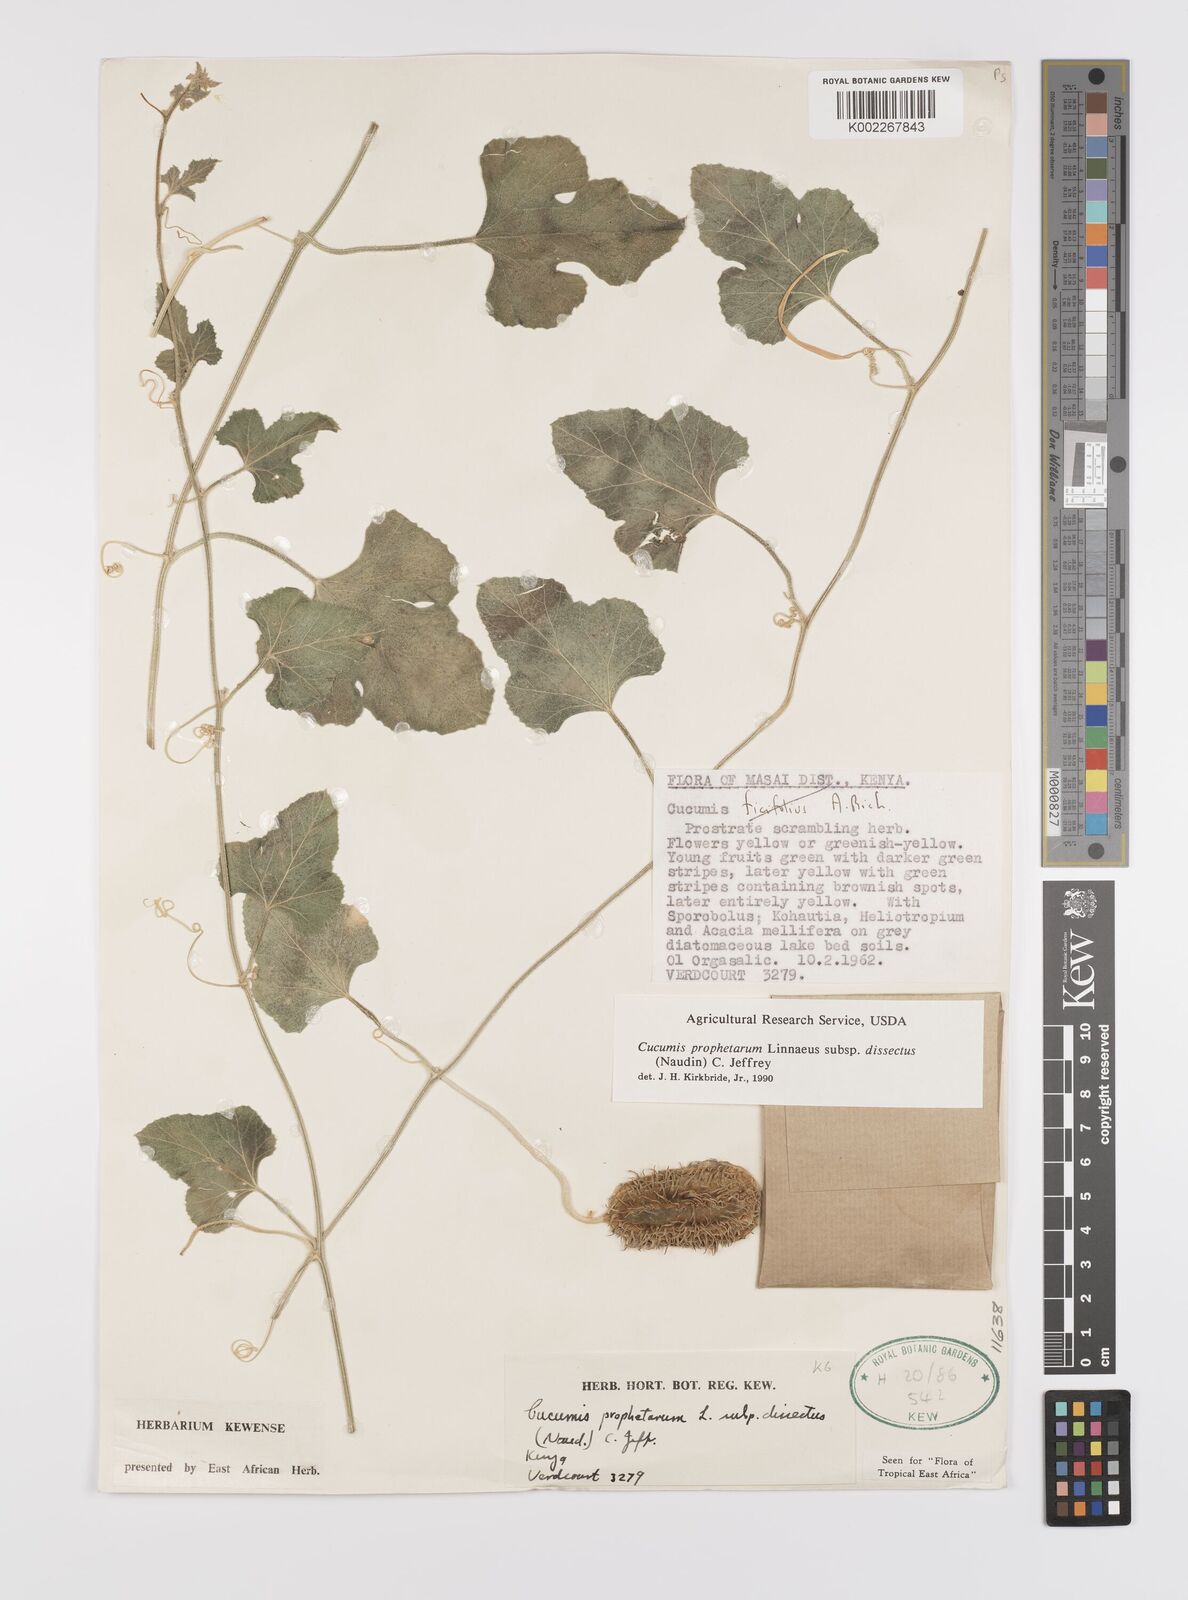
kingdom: Plantae
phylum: Tracheophyta
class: Magnoliopsida
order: Cucurbitales
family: Cucurbitaceae
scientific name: Cucurbitaceae
